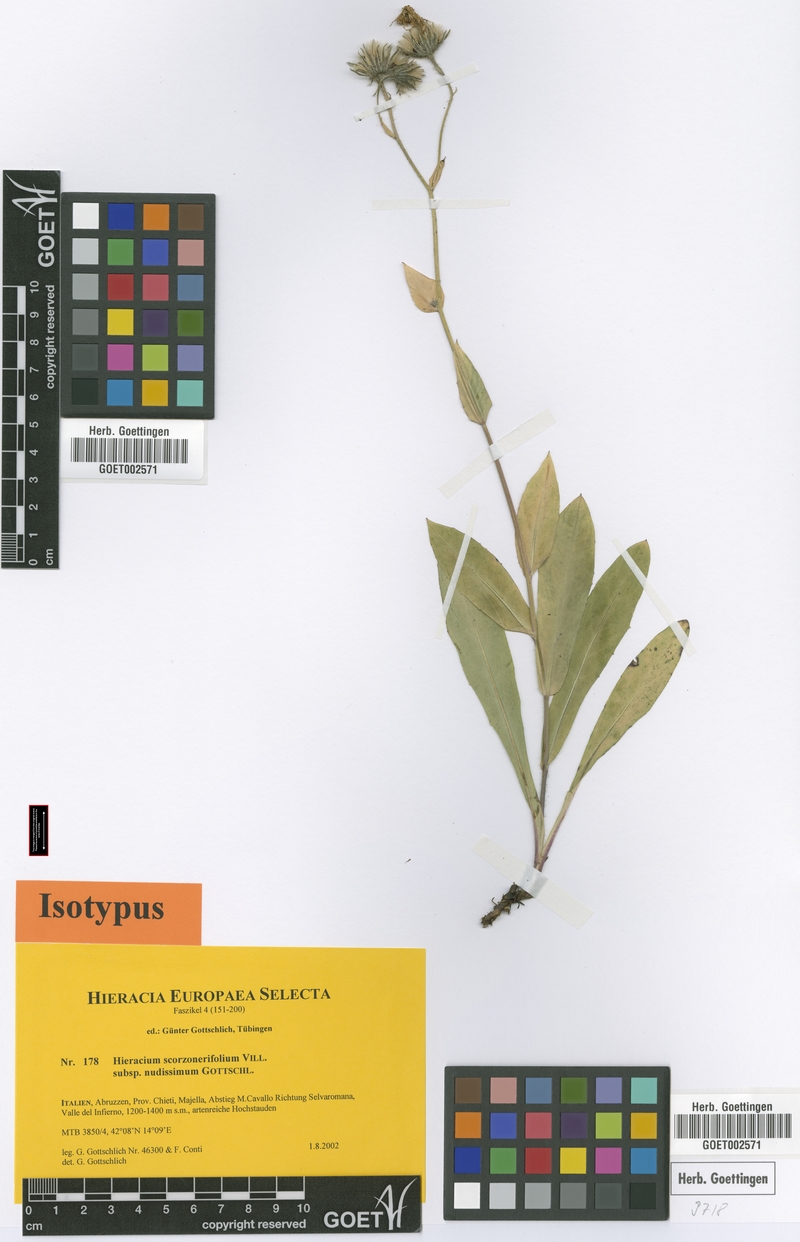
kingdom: Plantae
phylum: Tracheophyta
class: Magnoliopsida
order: Asterales
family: Asteraceae
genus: Hieracium
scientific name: Hieracium scorzonerifolium
